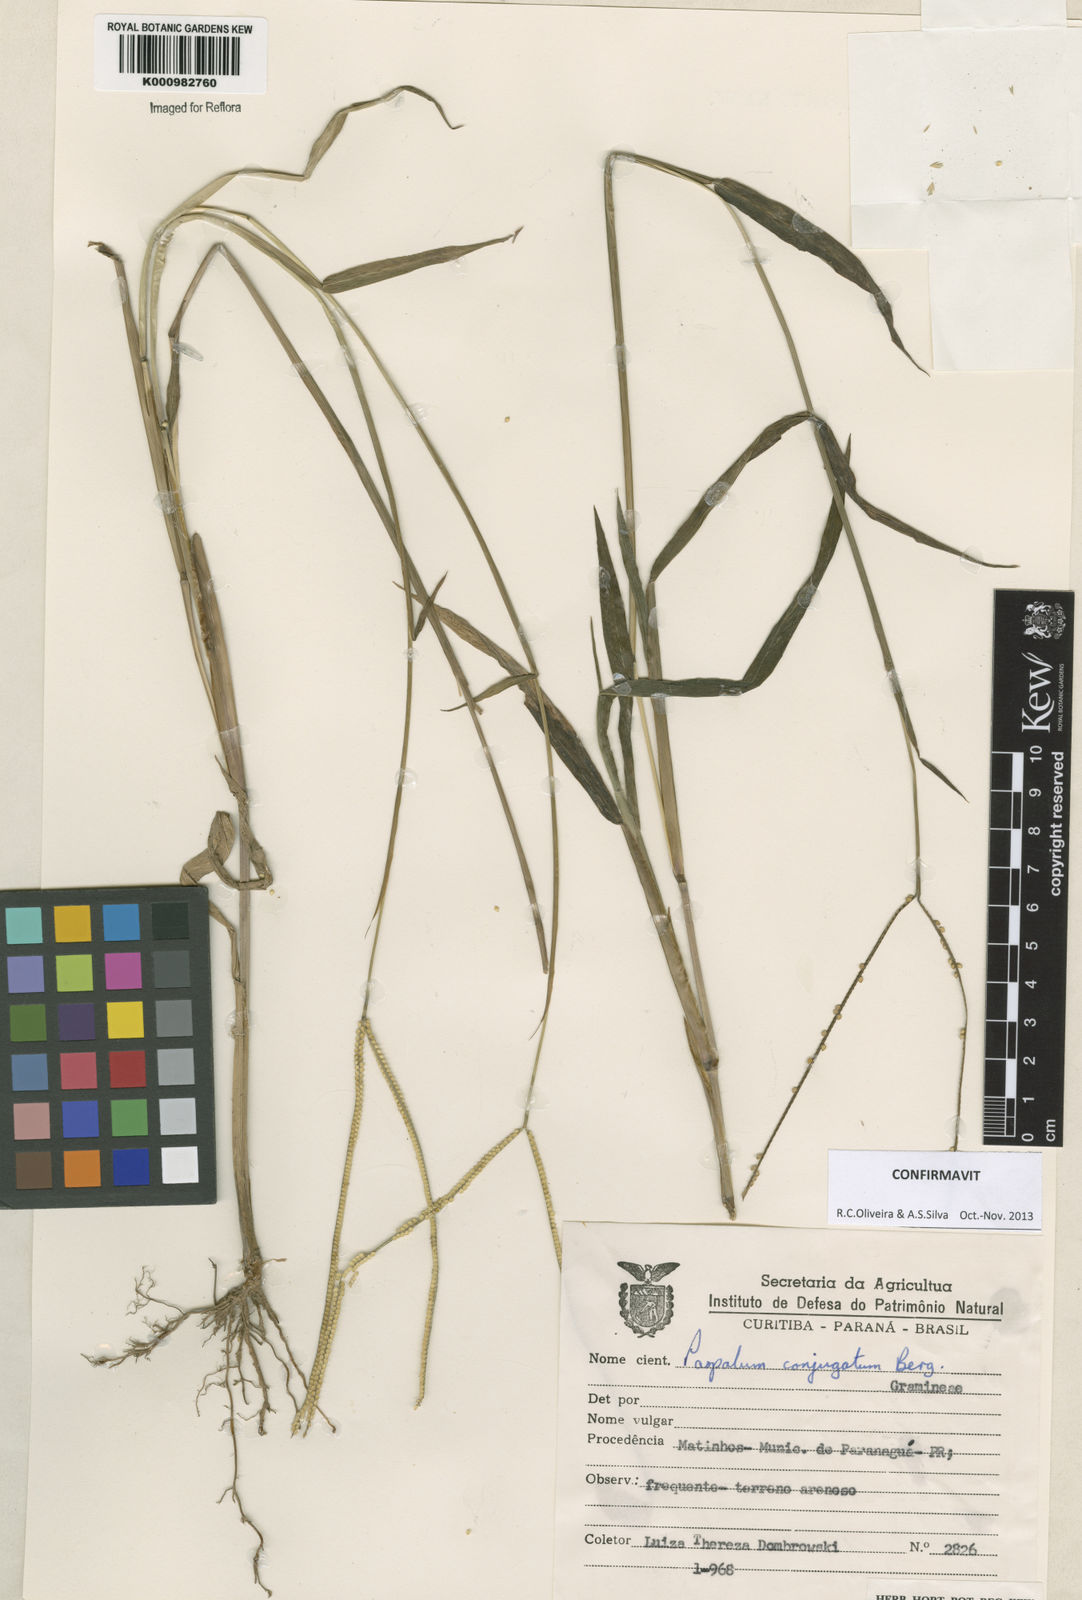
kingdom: Plantae
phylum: Tracheophyta
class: Liliopsida
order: Poales
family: Poaceae
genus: Paspalum
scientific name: Paspalum conjugatum
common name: Hilograss
